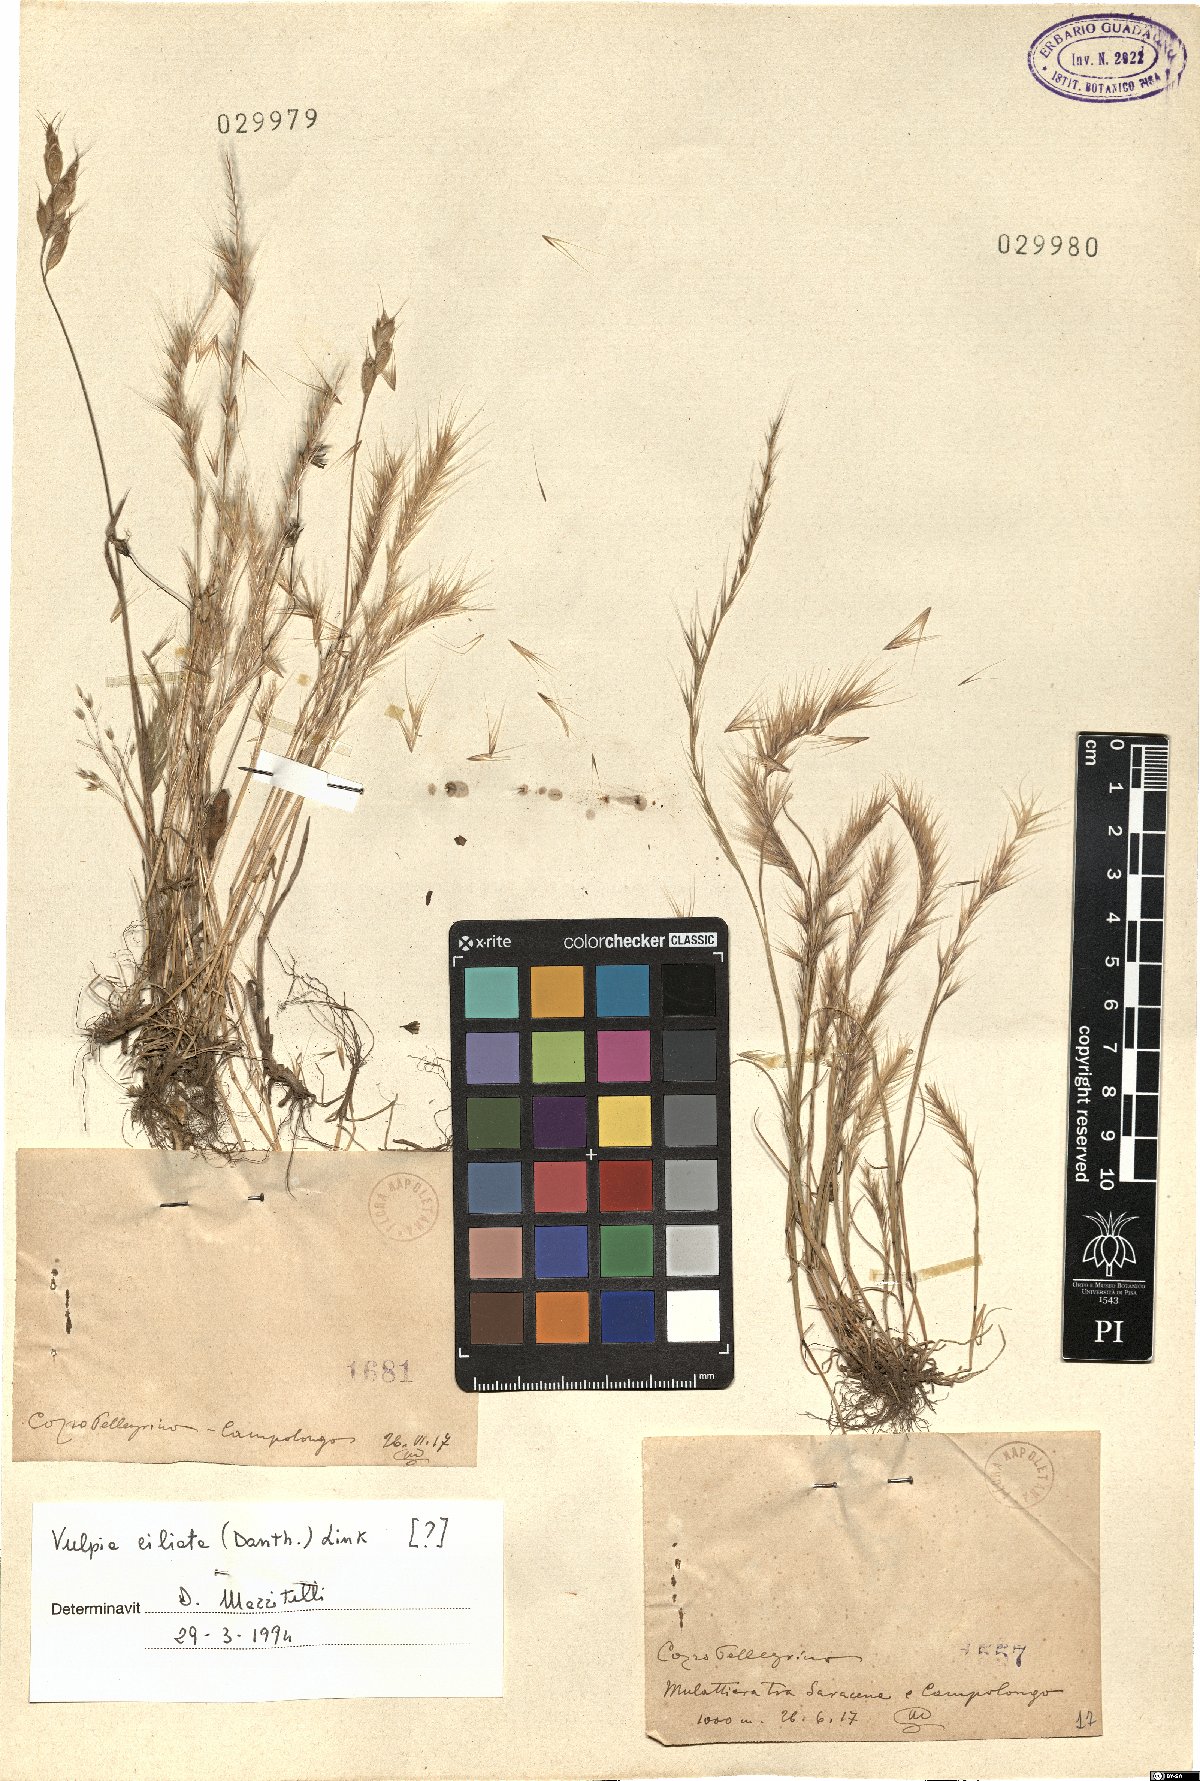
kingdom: Plantae
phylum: Tracheophyta
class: Liliopsida
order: Poales
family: Poaceae
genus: Festuca
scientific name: Festuca ambigua
